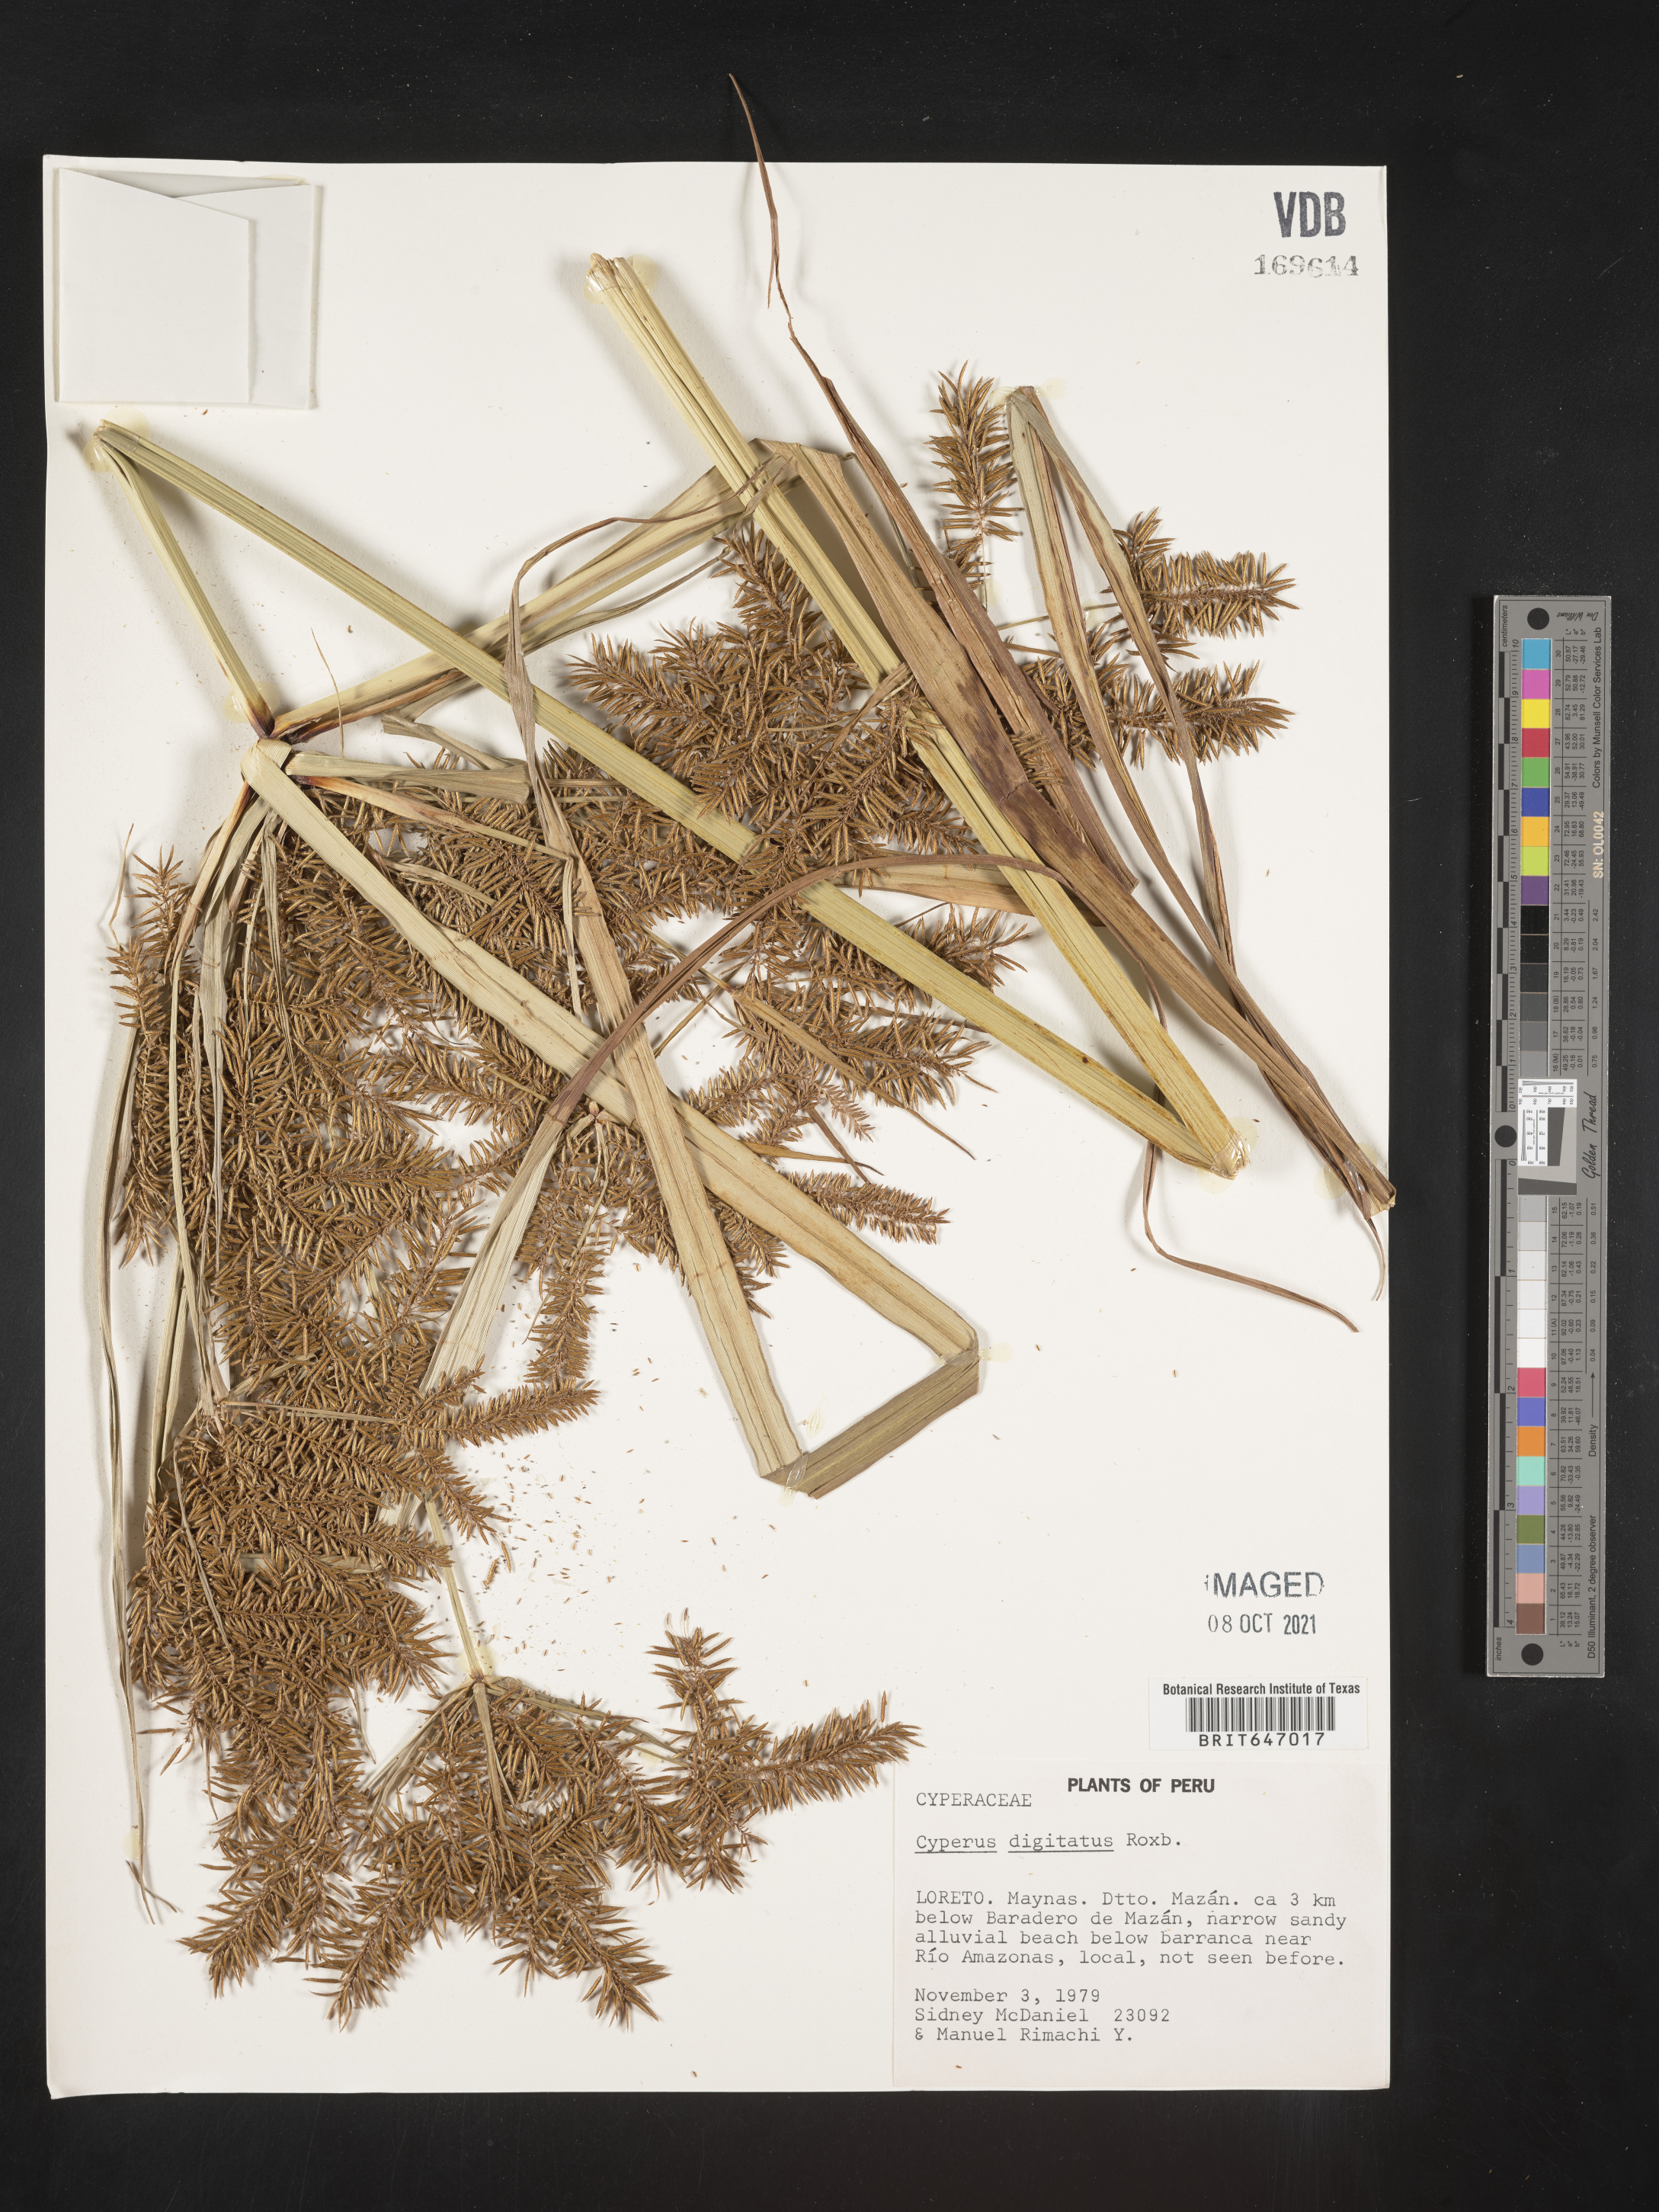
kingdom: Plantae
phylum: Tracheophyta
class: Liliopsida
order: Poales
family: Cyperaceae
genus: Cyperus
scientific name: Cyperus digitatus
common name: Finger flatsedge
